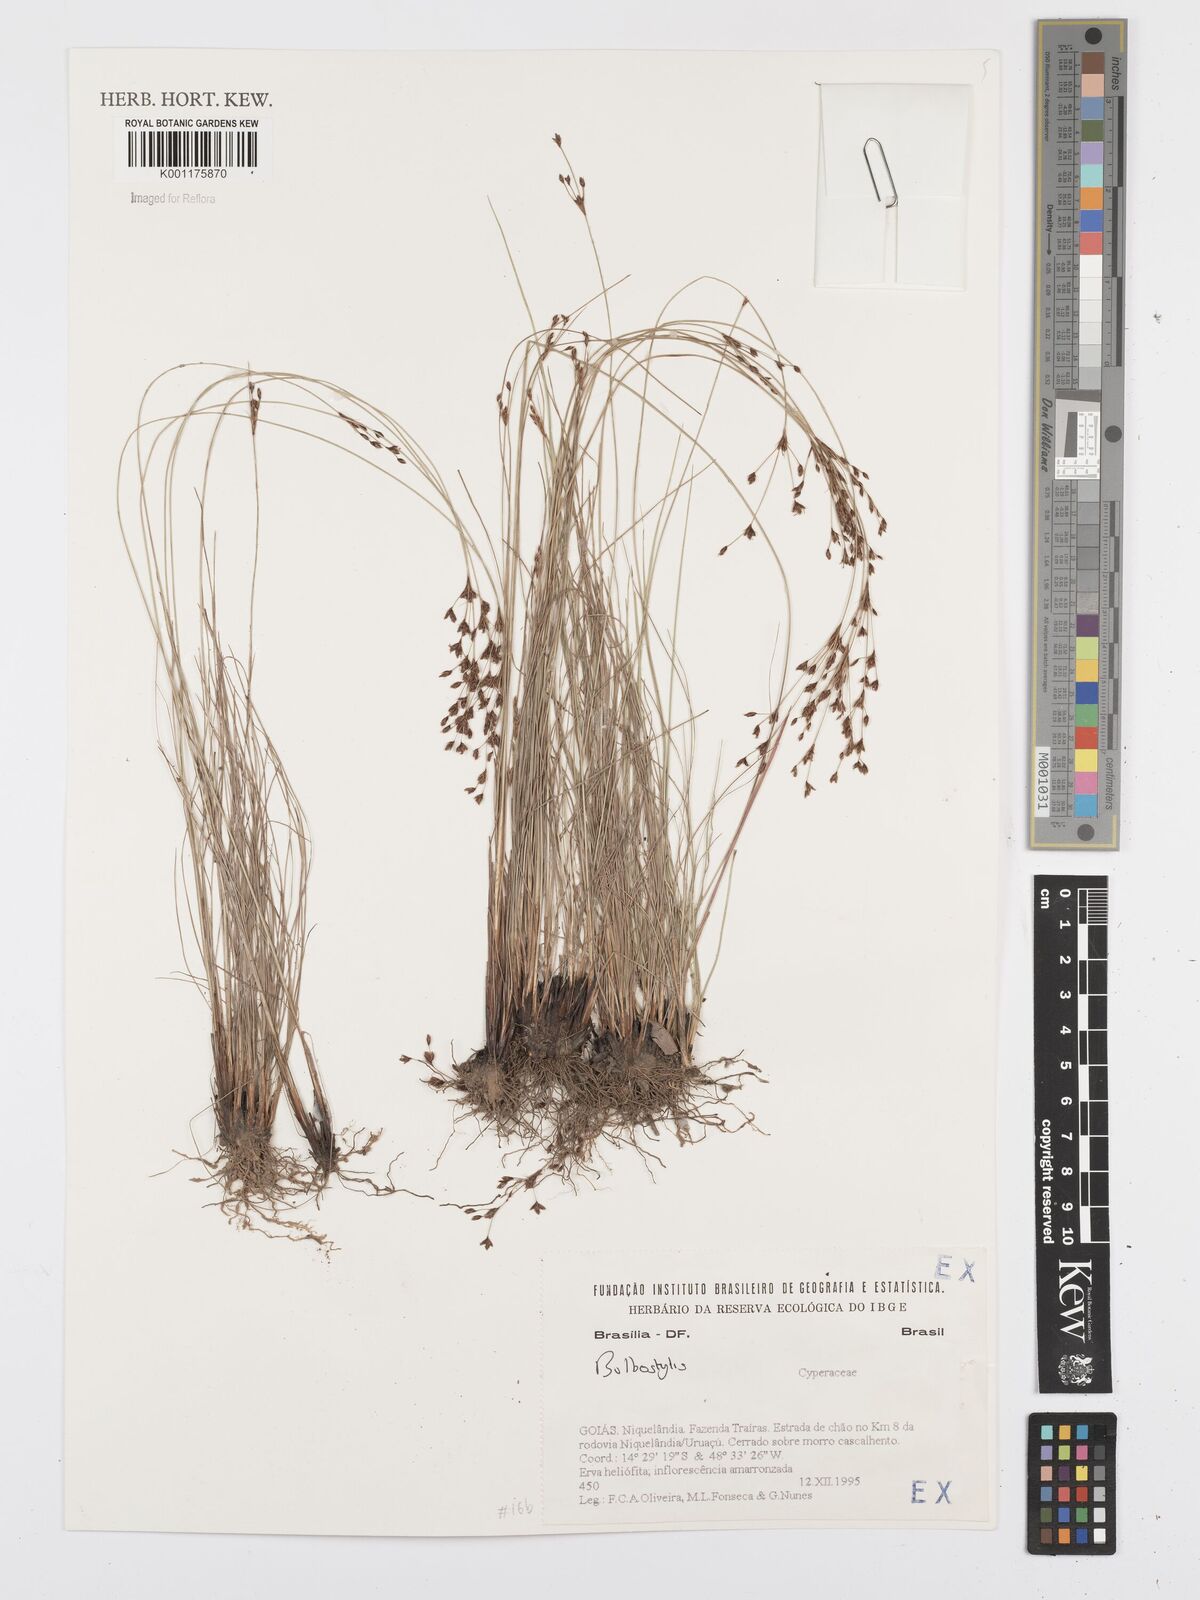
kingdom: Plantae
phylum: Tracheophyta
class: Liliopsida
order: Poales
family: Cyperaceae
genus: Bulbostylis
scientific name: Bulbostylis
